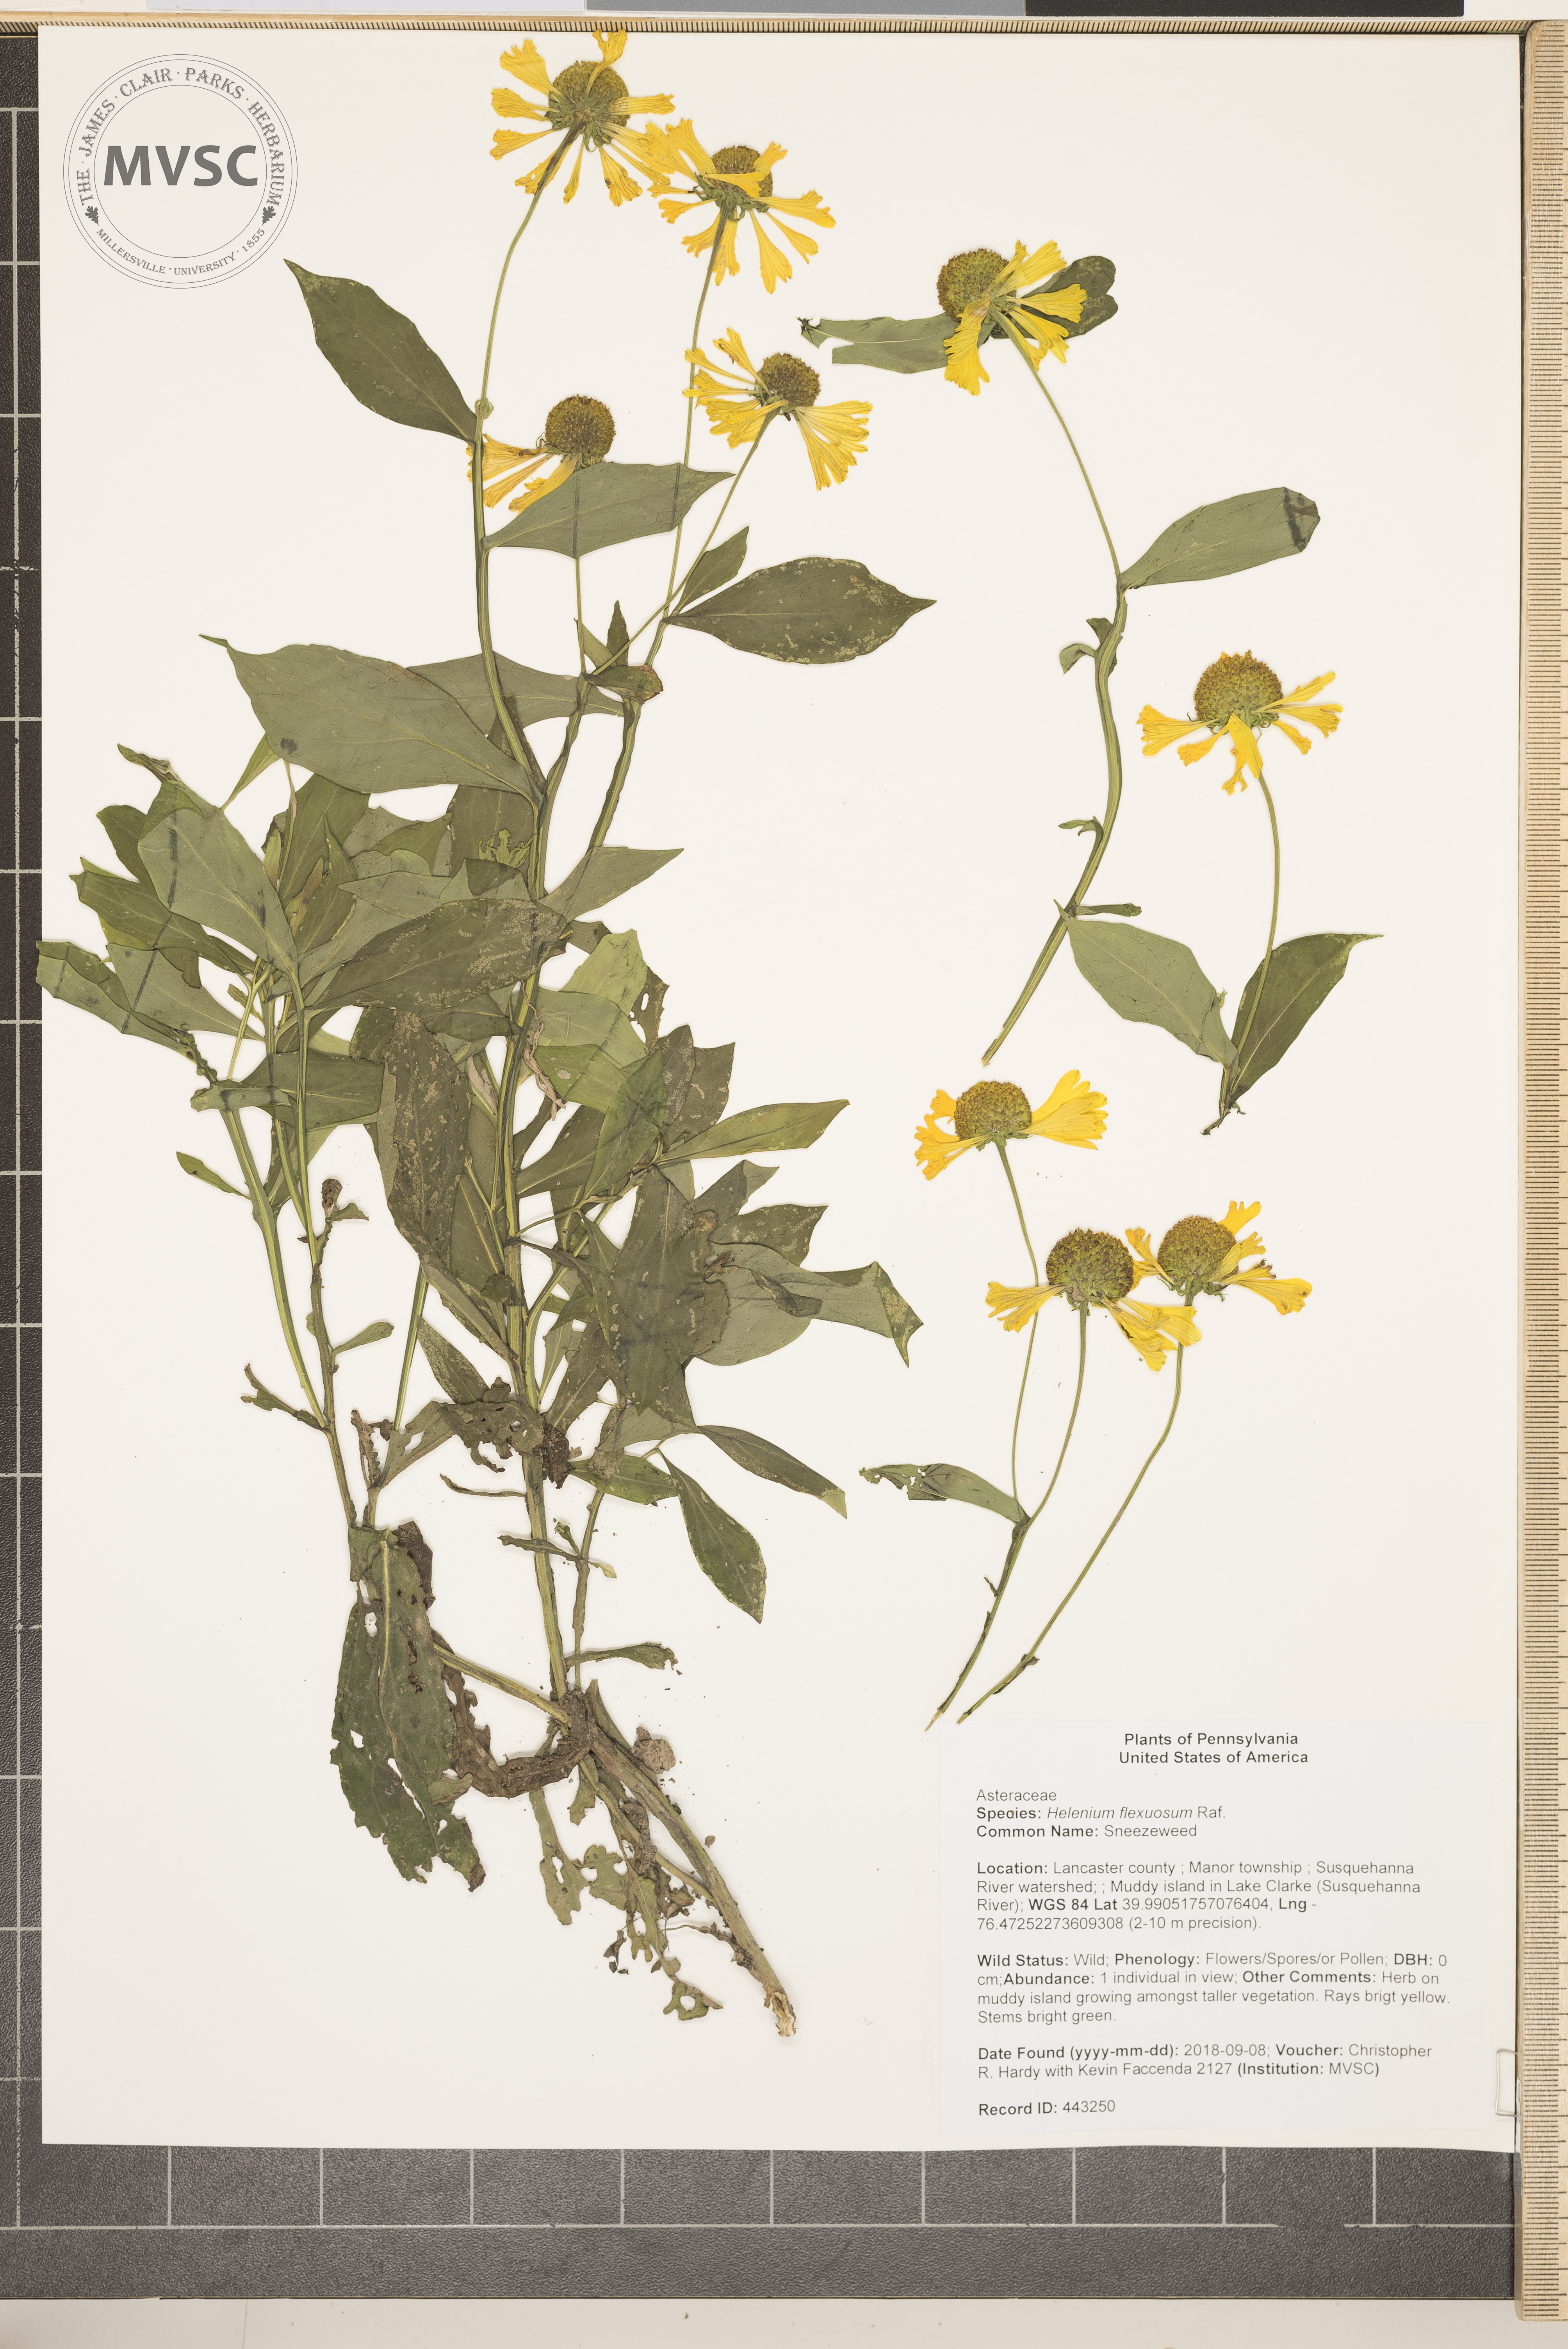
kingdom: Plantae
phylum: Tracheophyta
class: Magnoliopsida
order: Asterales
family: Asteraceae
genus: Helenium
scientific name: Helenium autumnale
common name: Sneezeweed
